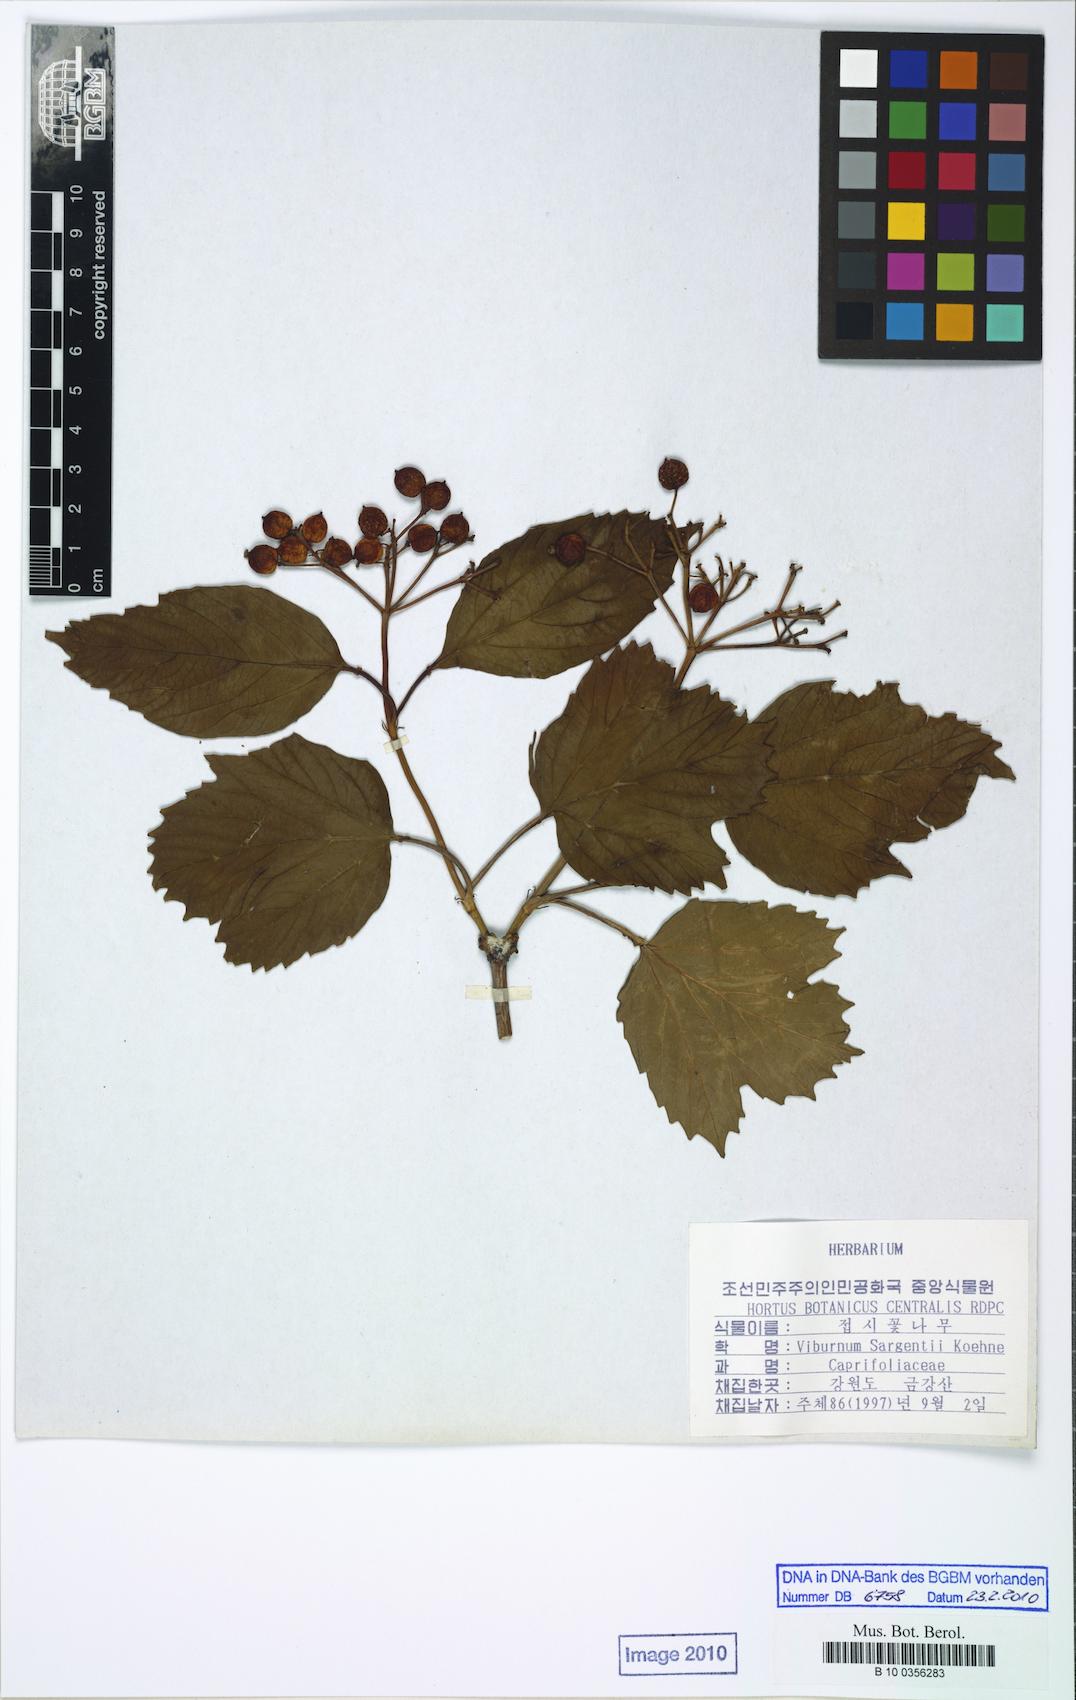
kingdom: Plantae
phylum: Tracheophyta
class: Magnoliopsida
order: Dipsacales
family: Viburnaceae
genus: Viburnum
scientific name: Viburnum sargentii
